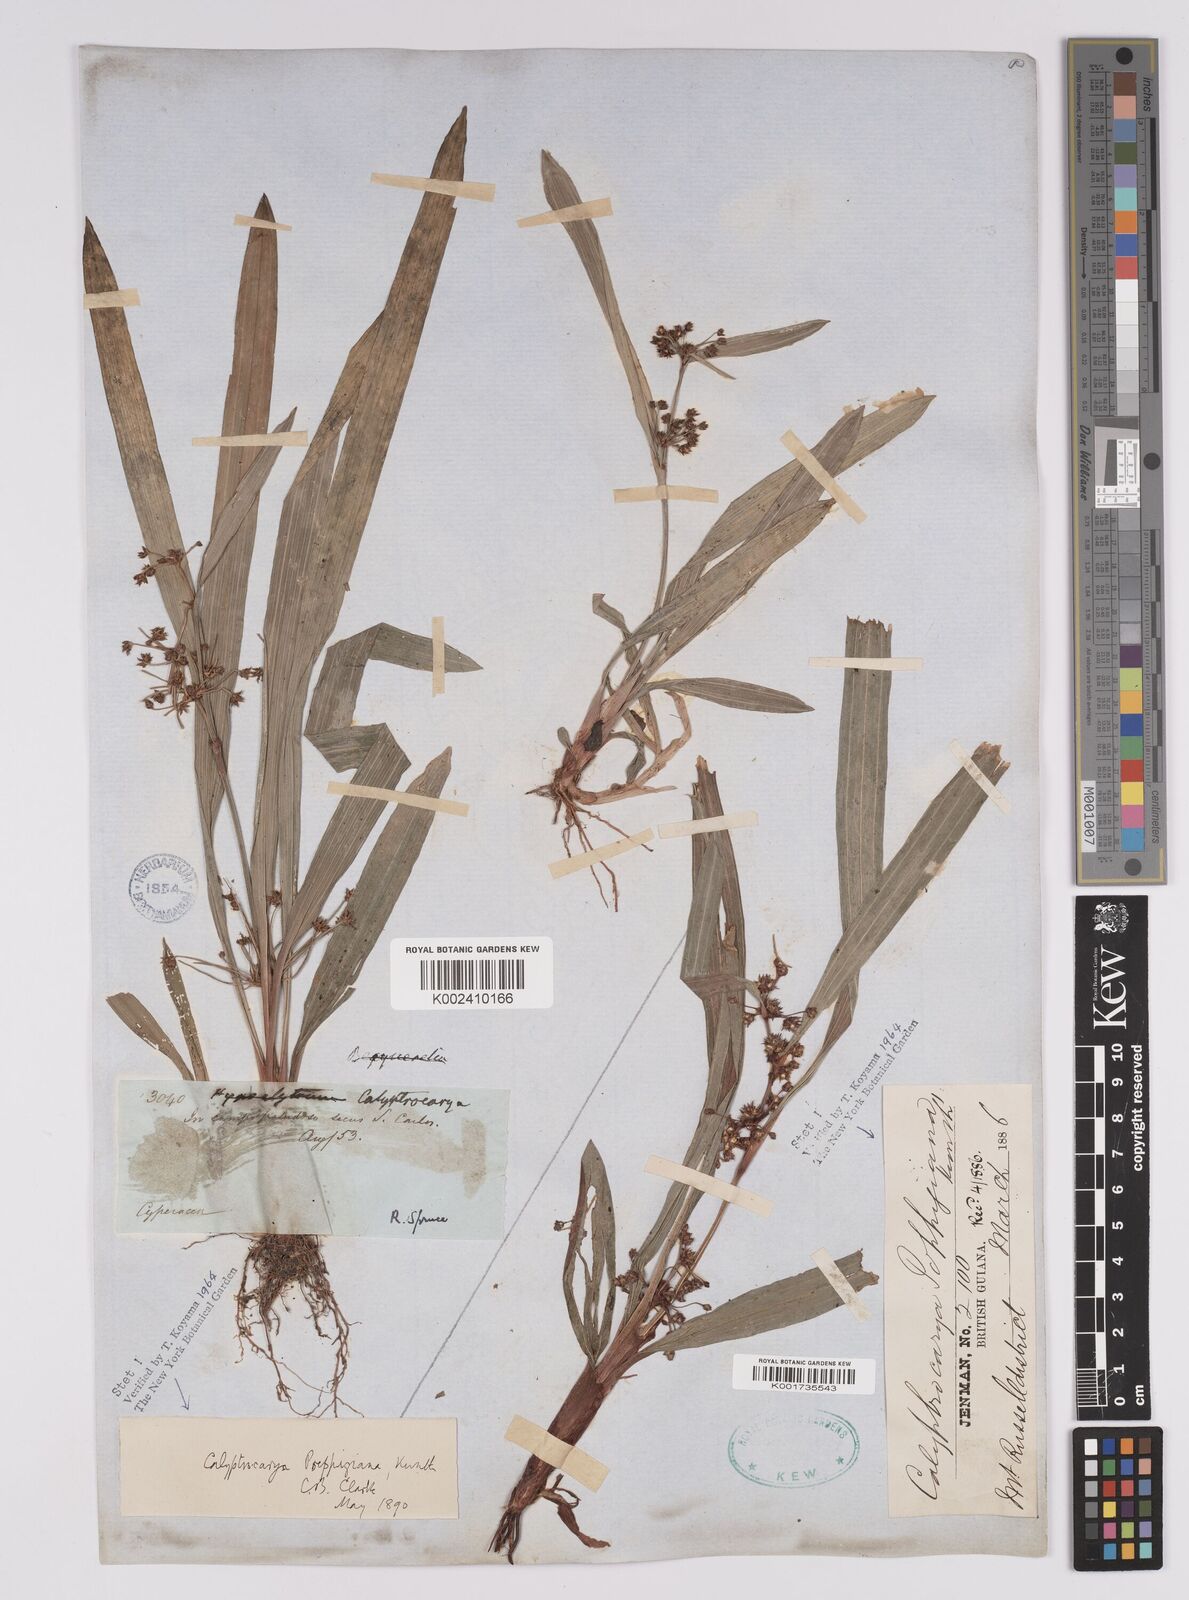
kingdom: Plantae
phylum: Tracheophyta
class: Liliopsida
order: Poales
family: Cyperaceae
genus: Calyptrocarya
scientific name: Calyptrocarya poeppigiana
